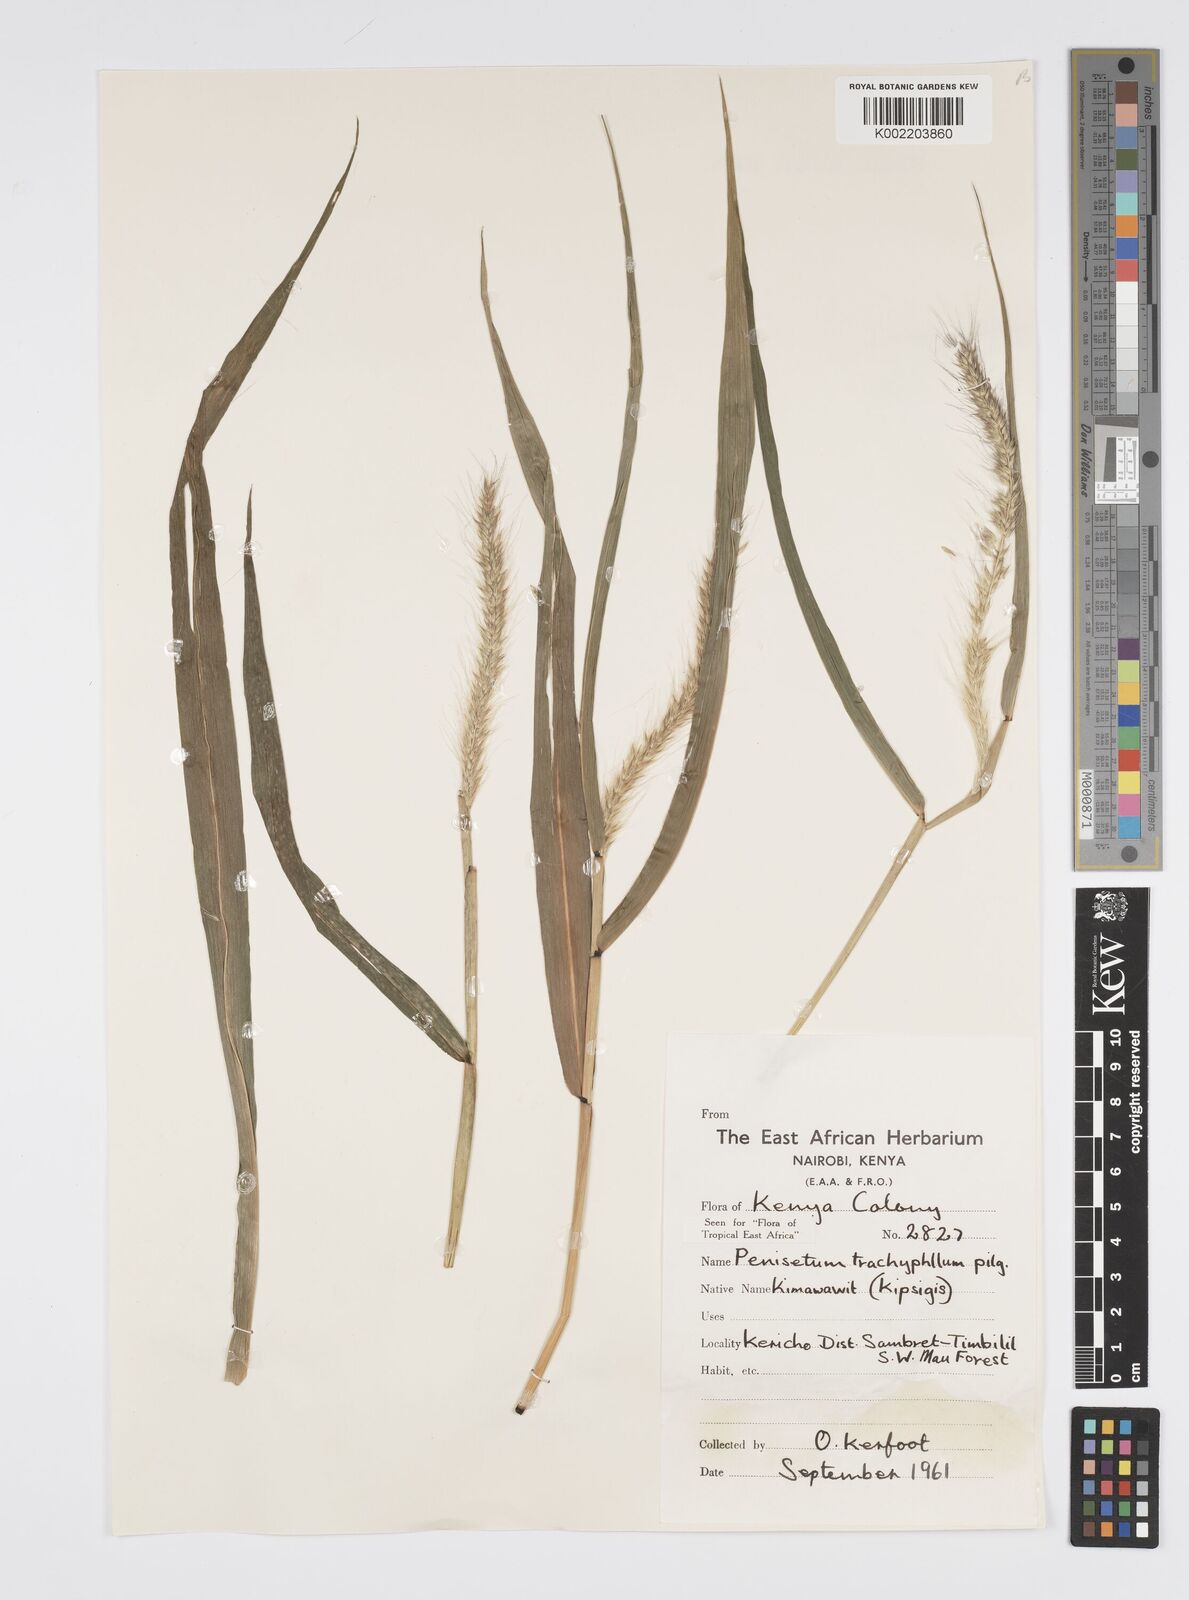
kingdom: Plantae
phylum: Tracheophyta
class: Liliopsida
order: Poales
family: Poaceae
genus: Cenchrus
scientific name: Cenchrus trachyphyllus
